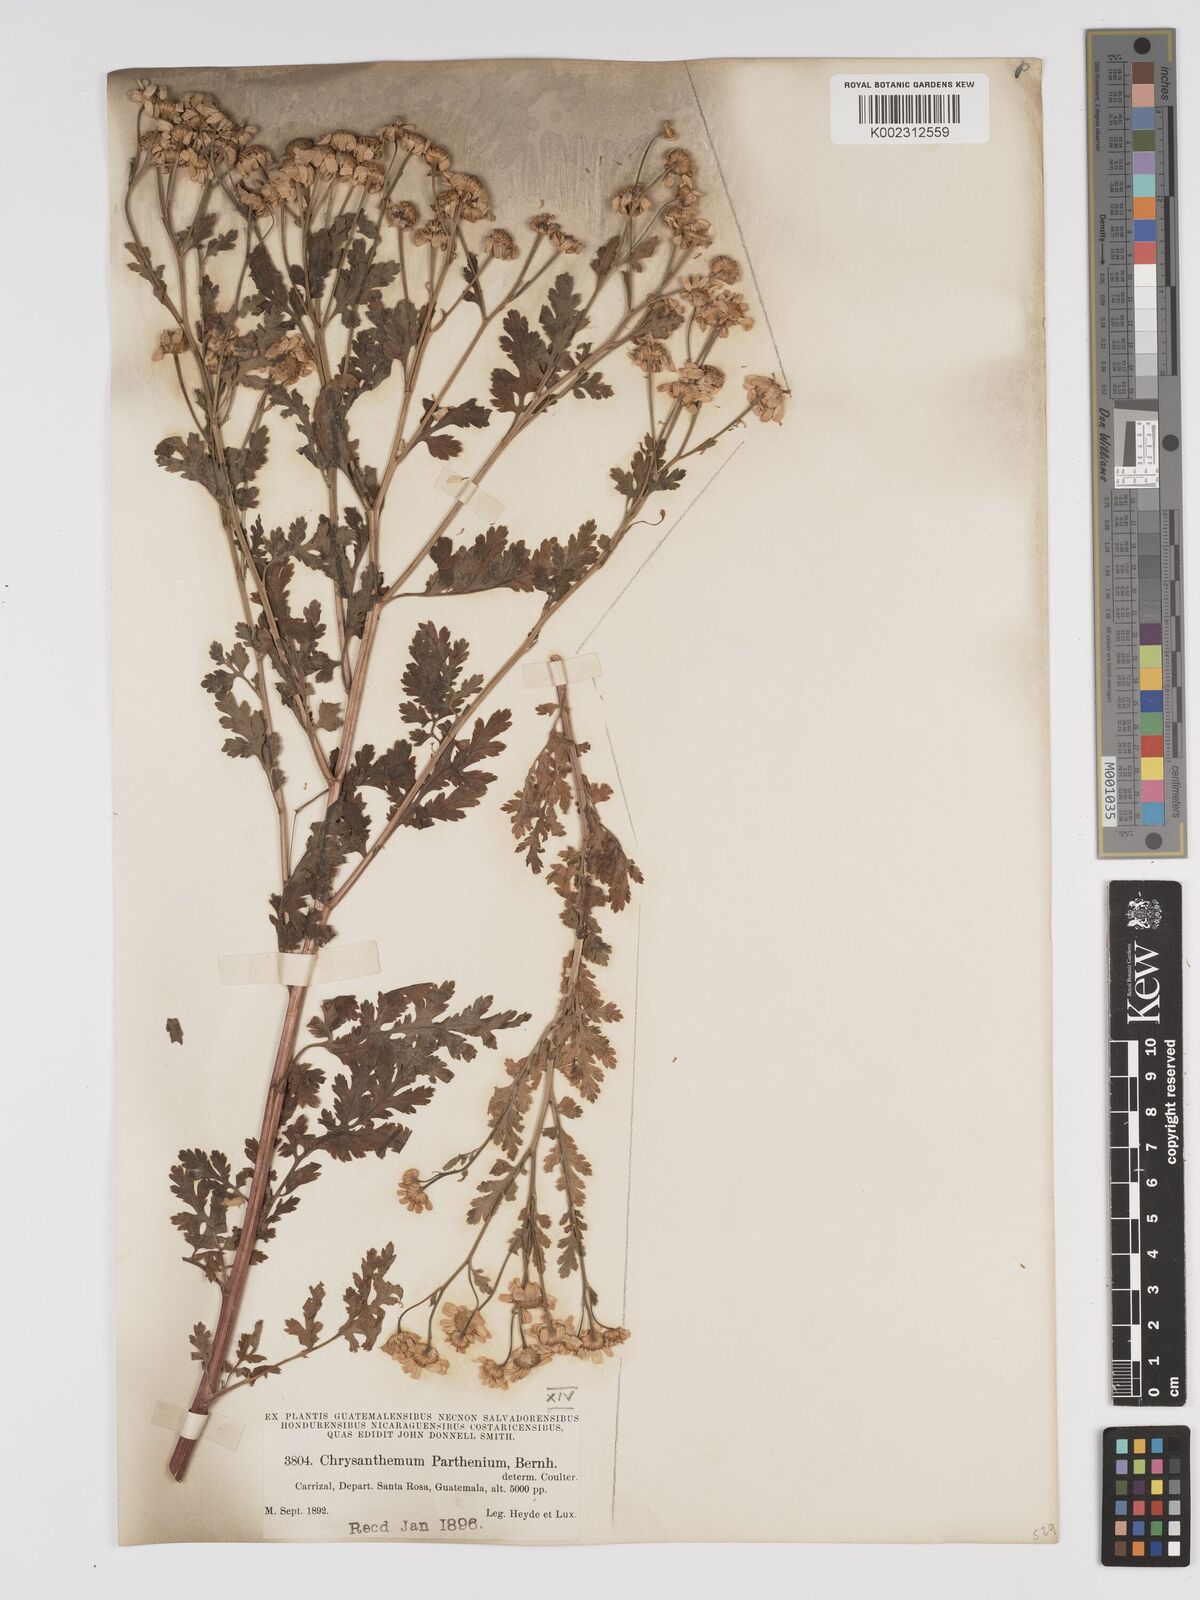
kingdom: Plantae
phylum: Tracheophyta
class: Magnoliopsida
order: Asterales
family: Asteraceae
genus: Tanacetum
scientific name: Tanacetum parthenium
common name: Feverfew
